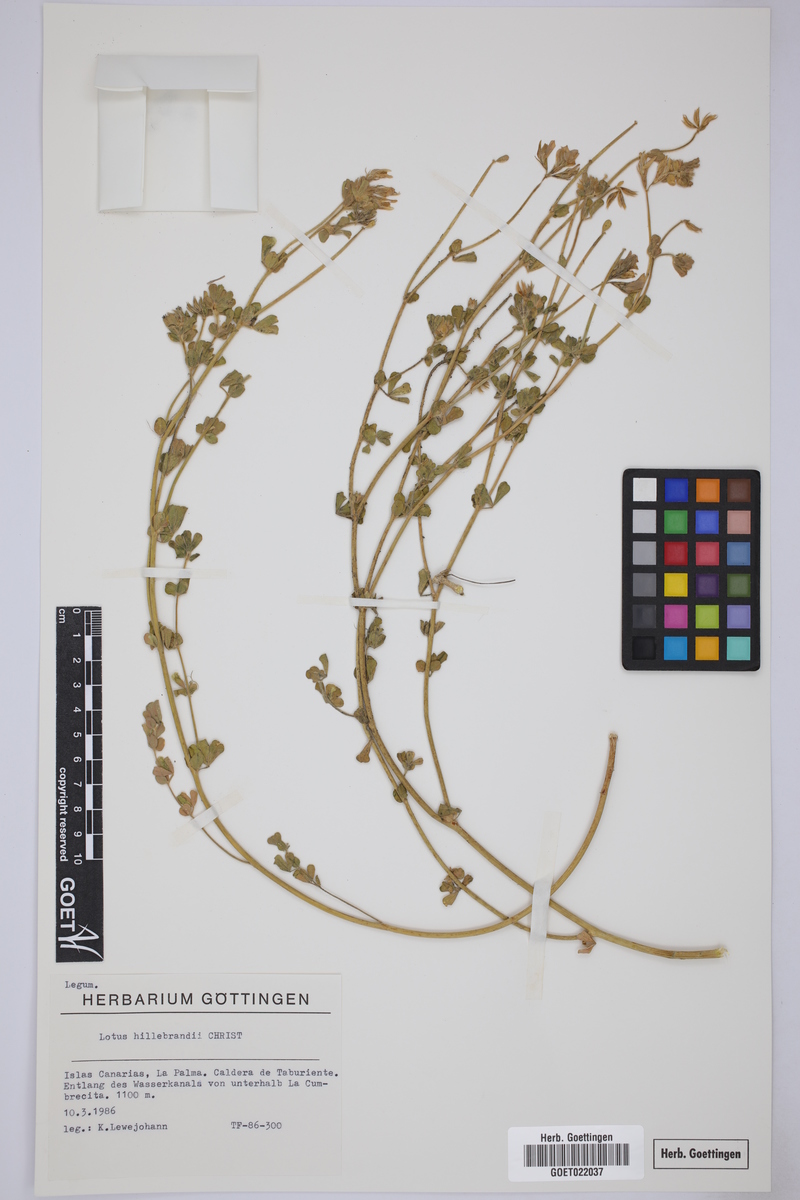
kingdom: Plantae
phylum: Tracheophyta
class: Magnoliopsida
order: Fabales
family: Fabaceae
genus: Lotus
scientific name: Lotus campylocladus
